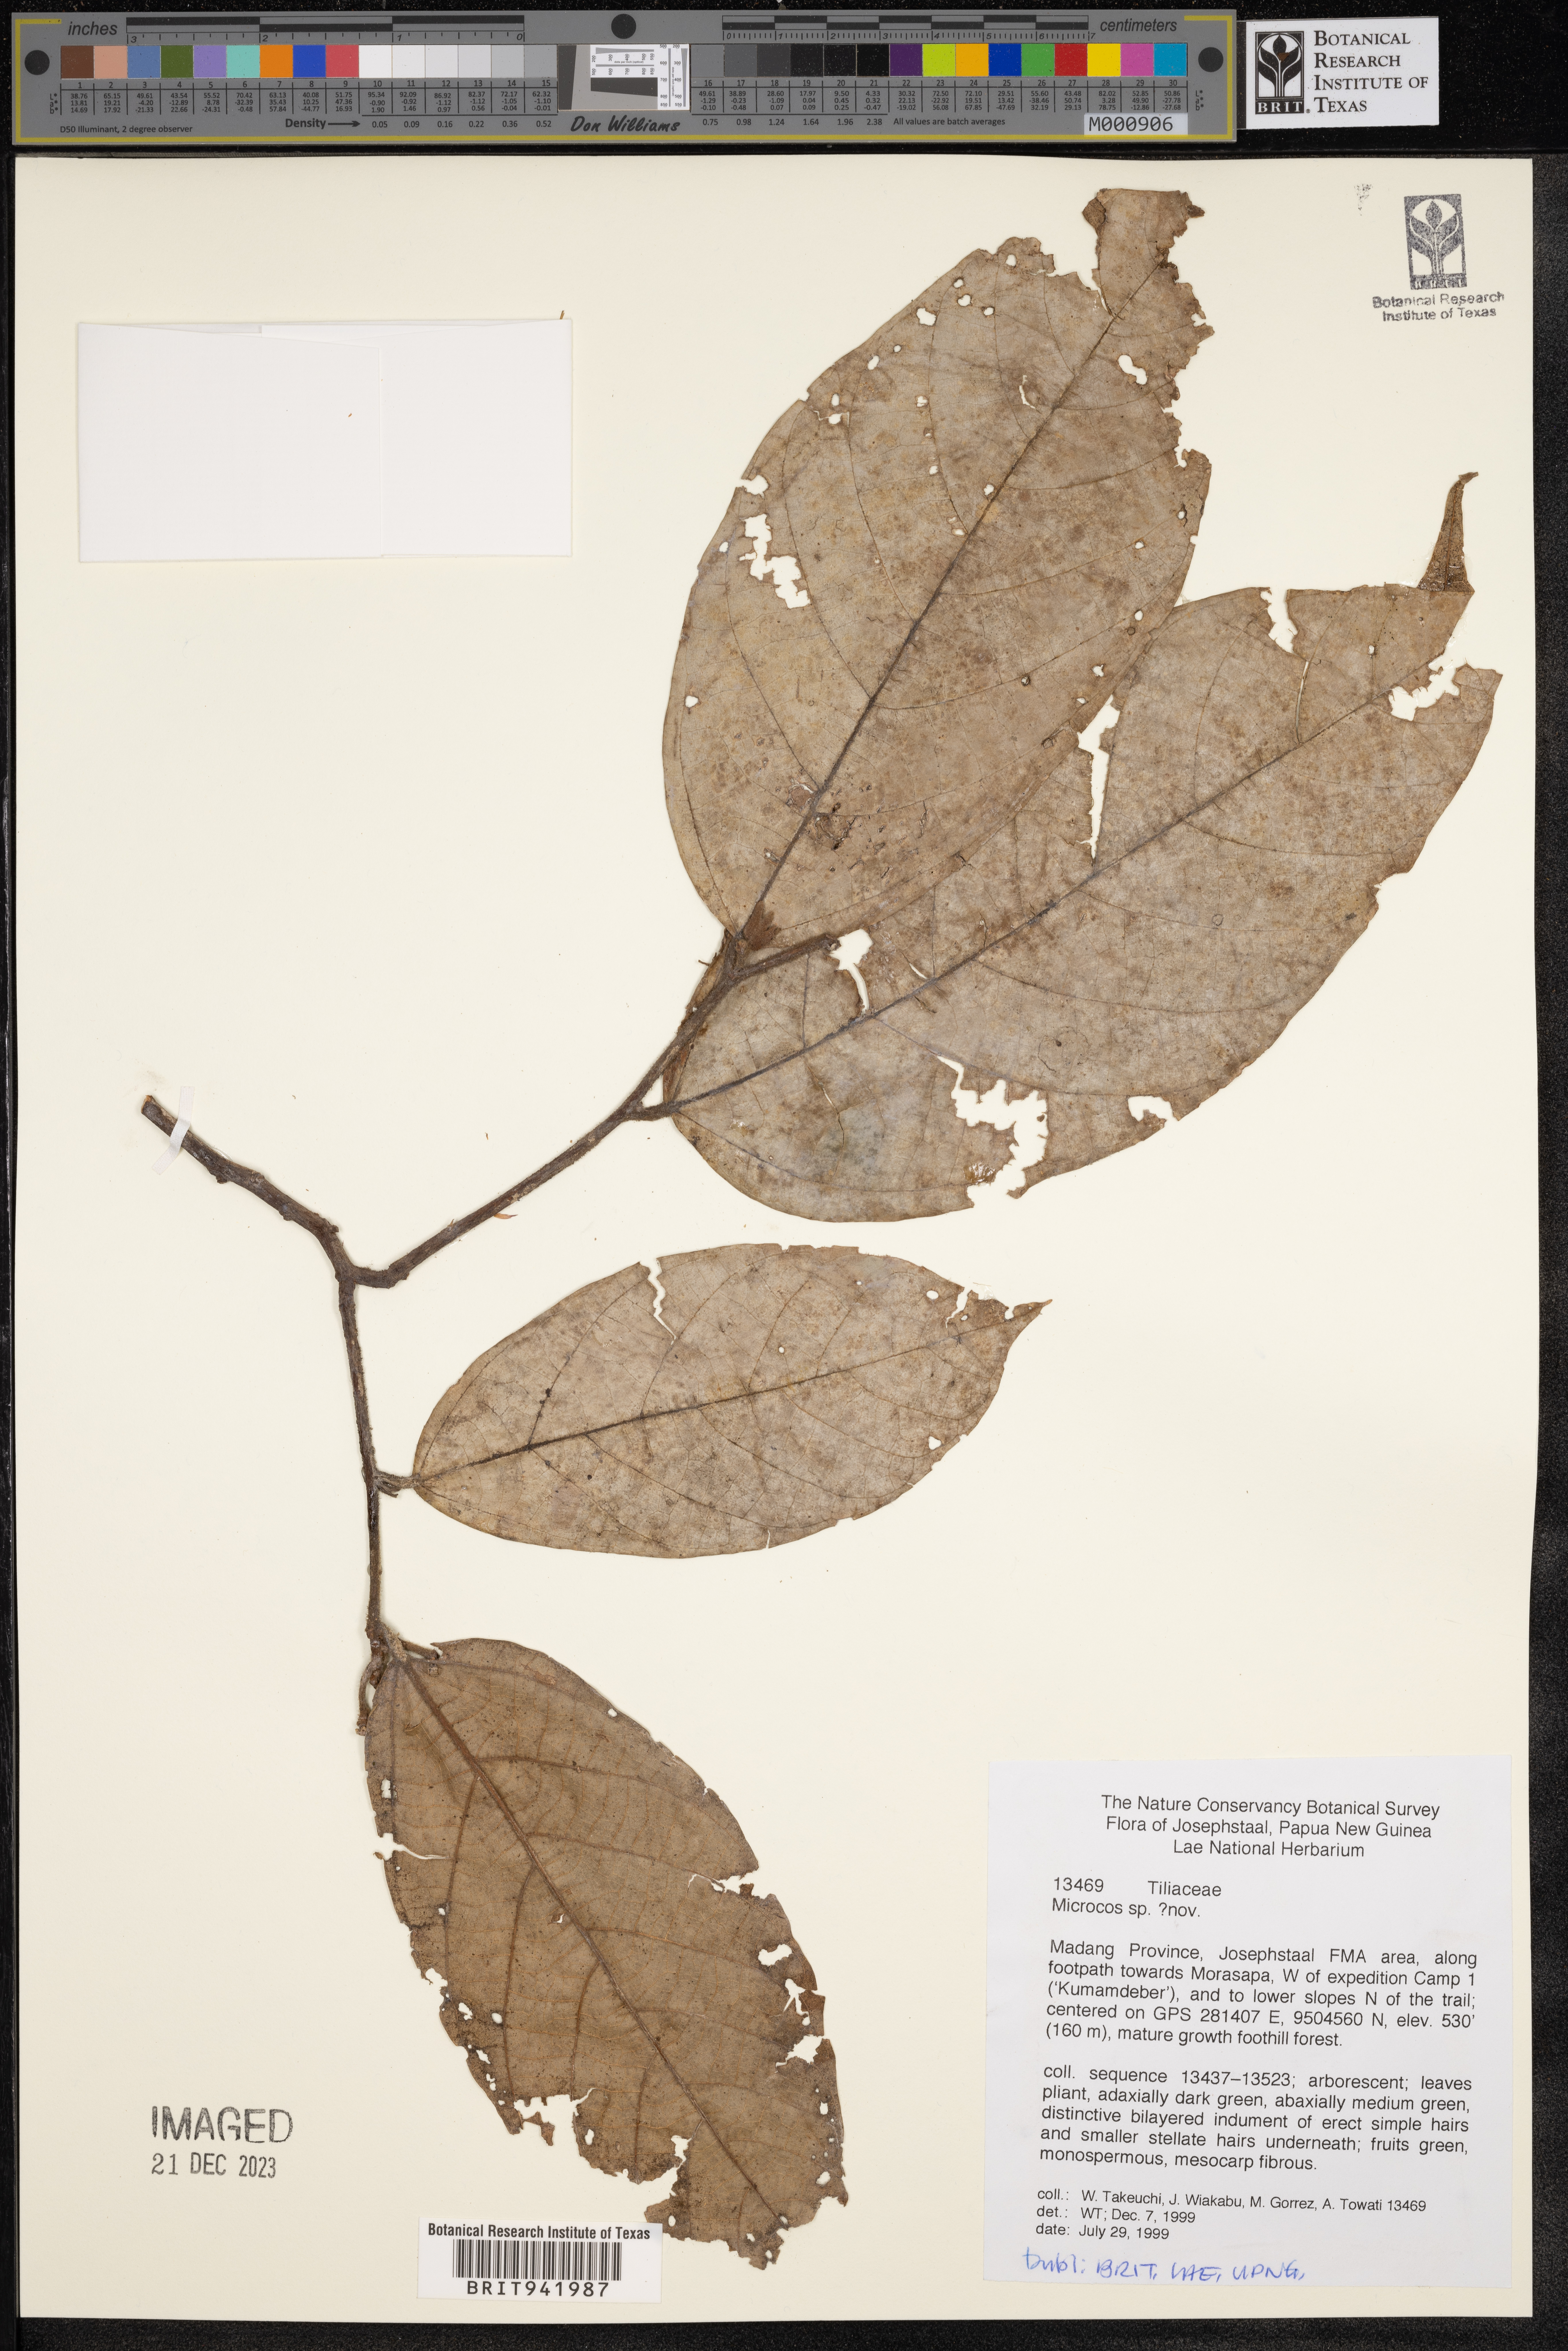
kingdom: Plantae
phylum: Tracheophyta
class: Magnoliopsida
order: Malvales
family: Malvaceae
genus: Microcos
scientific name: Microcos
